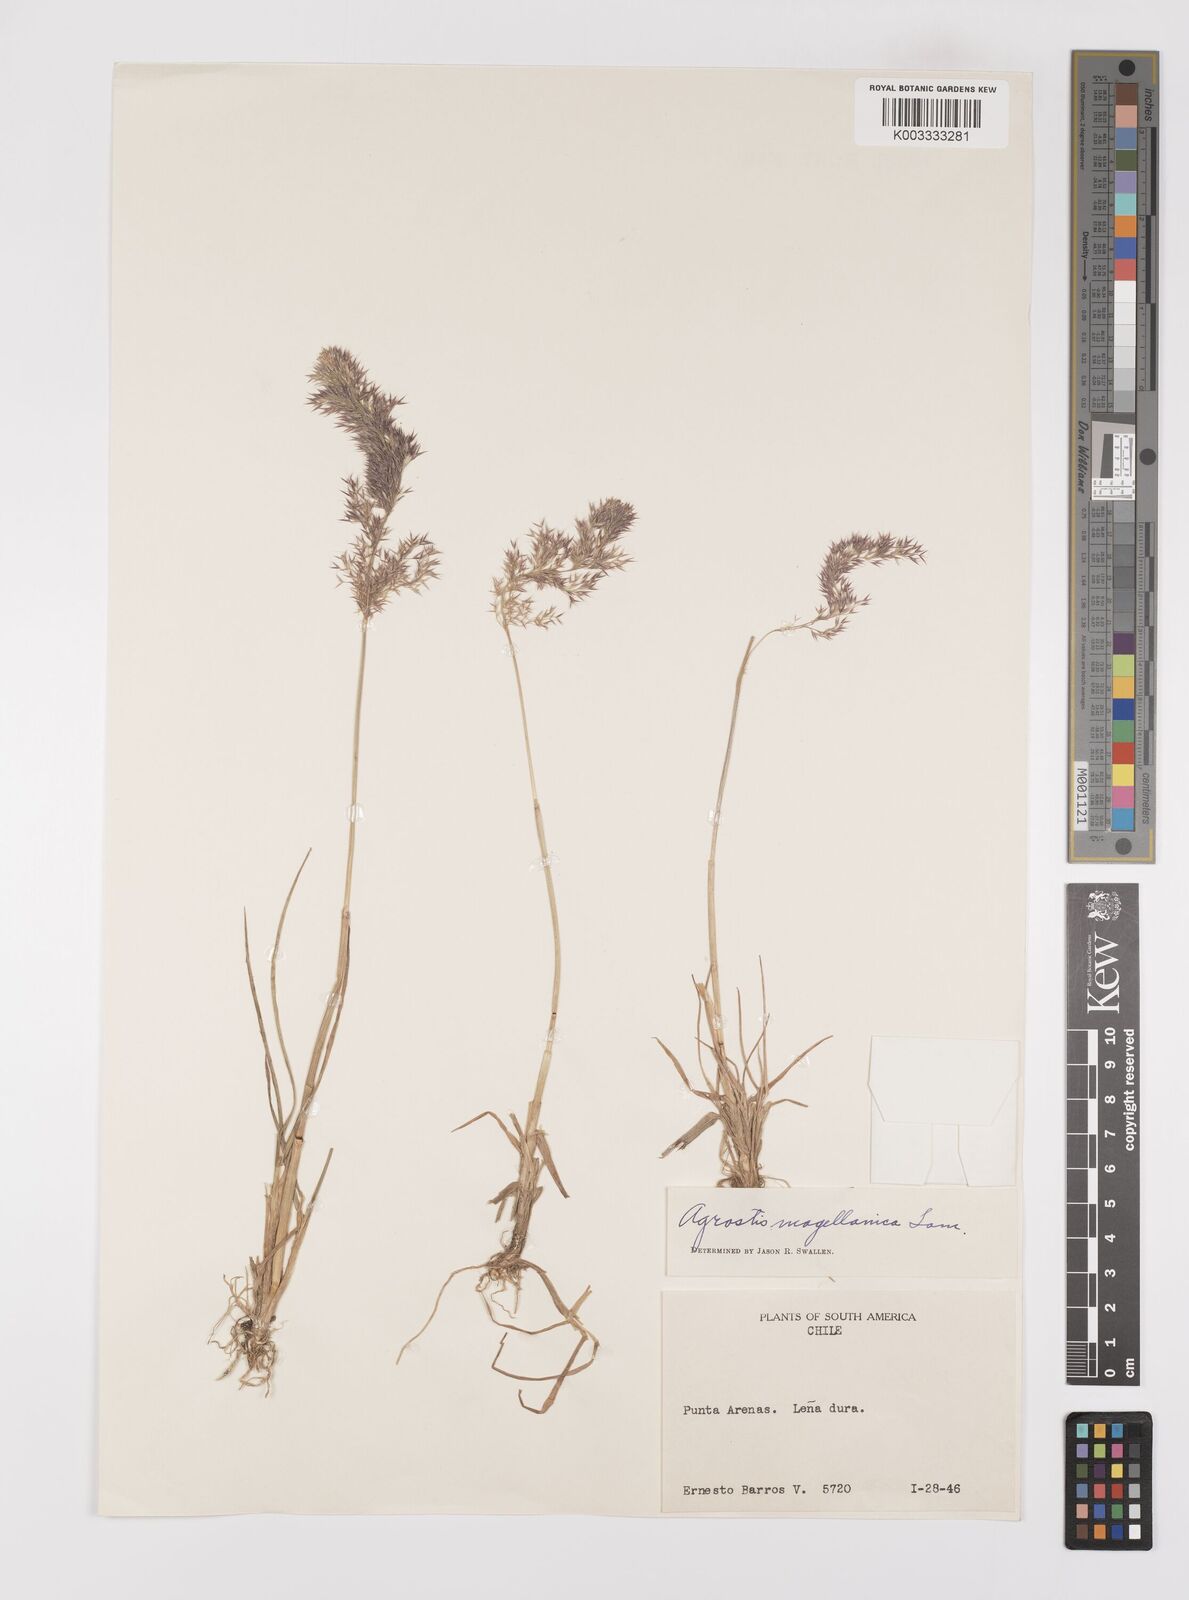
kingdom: Plantae
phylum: Tracheophyta
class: Liliopsida
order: Poales
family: Poaceae
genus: Polypogon
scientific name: Polypogon magellanicus
